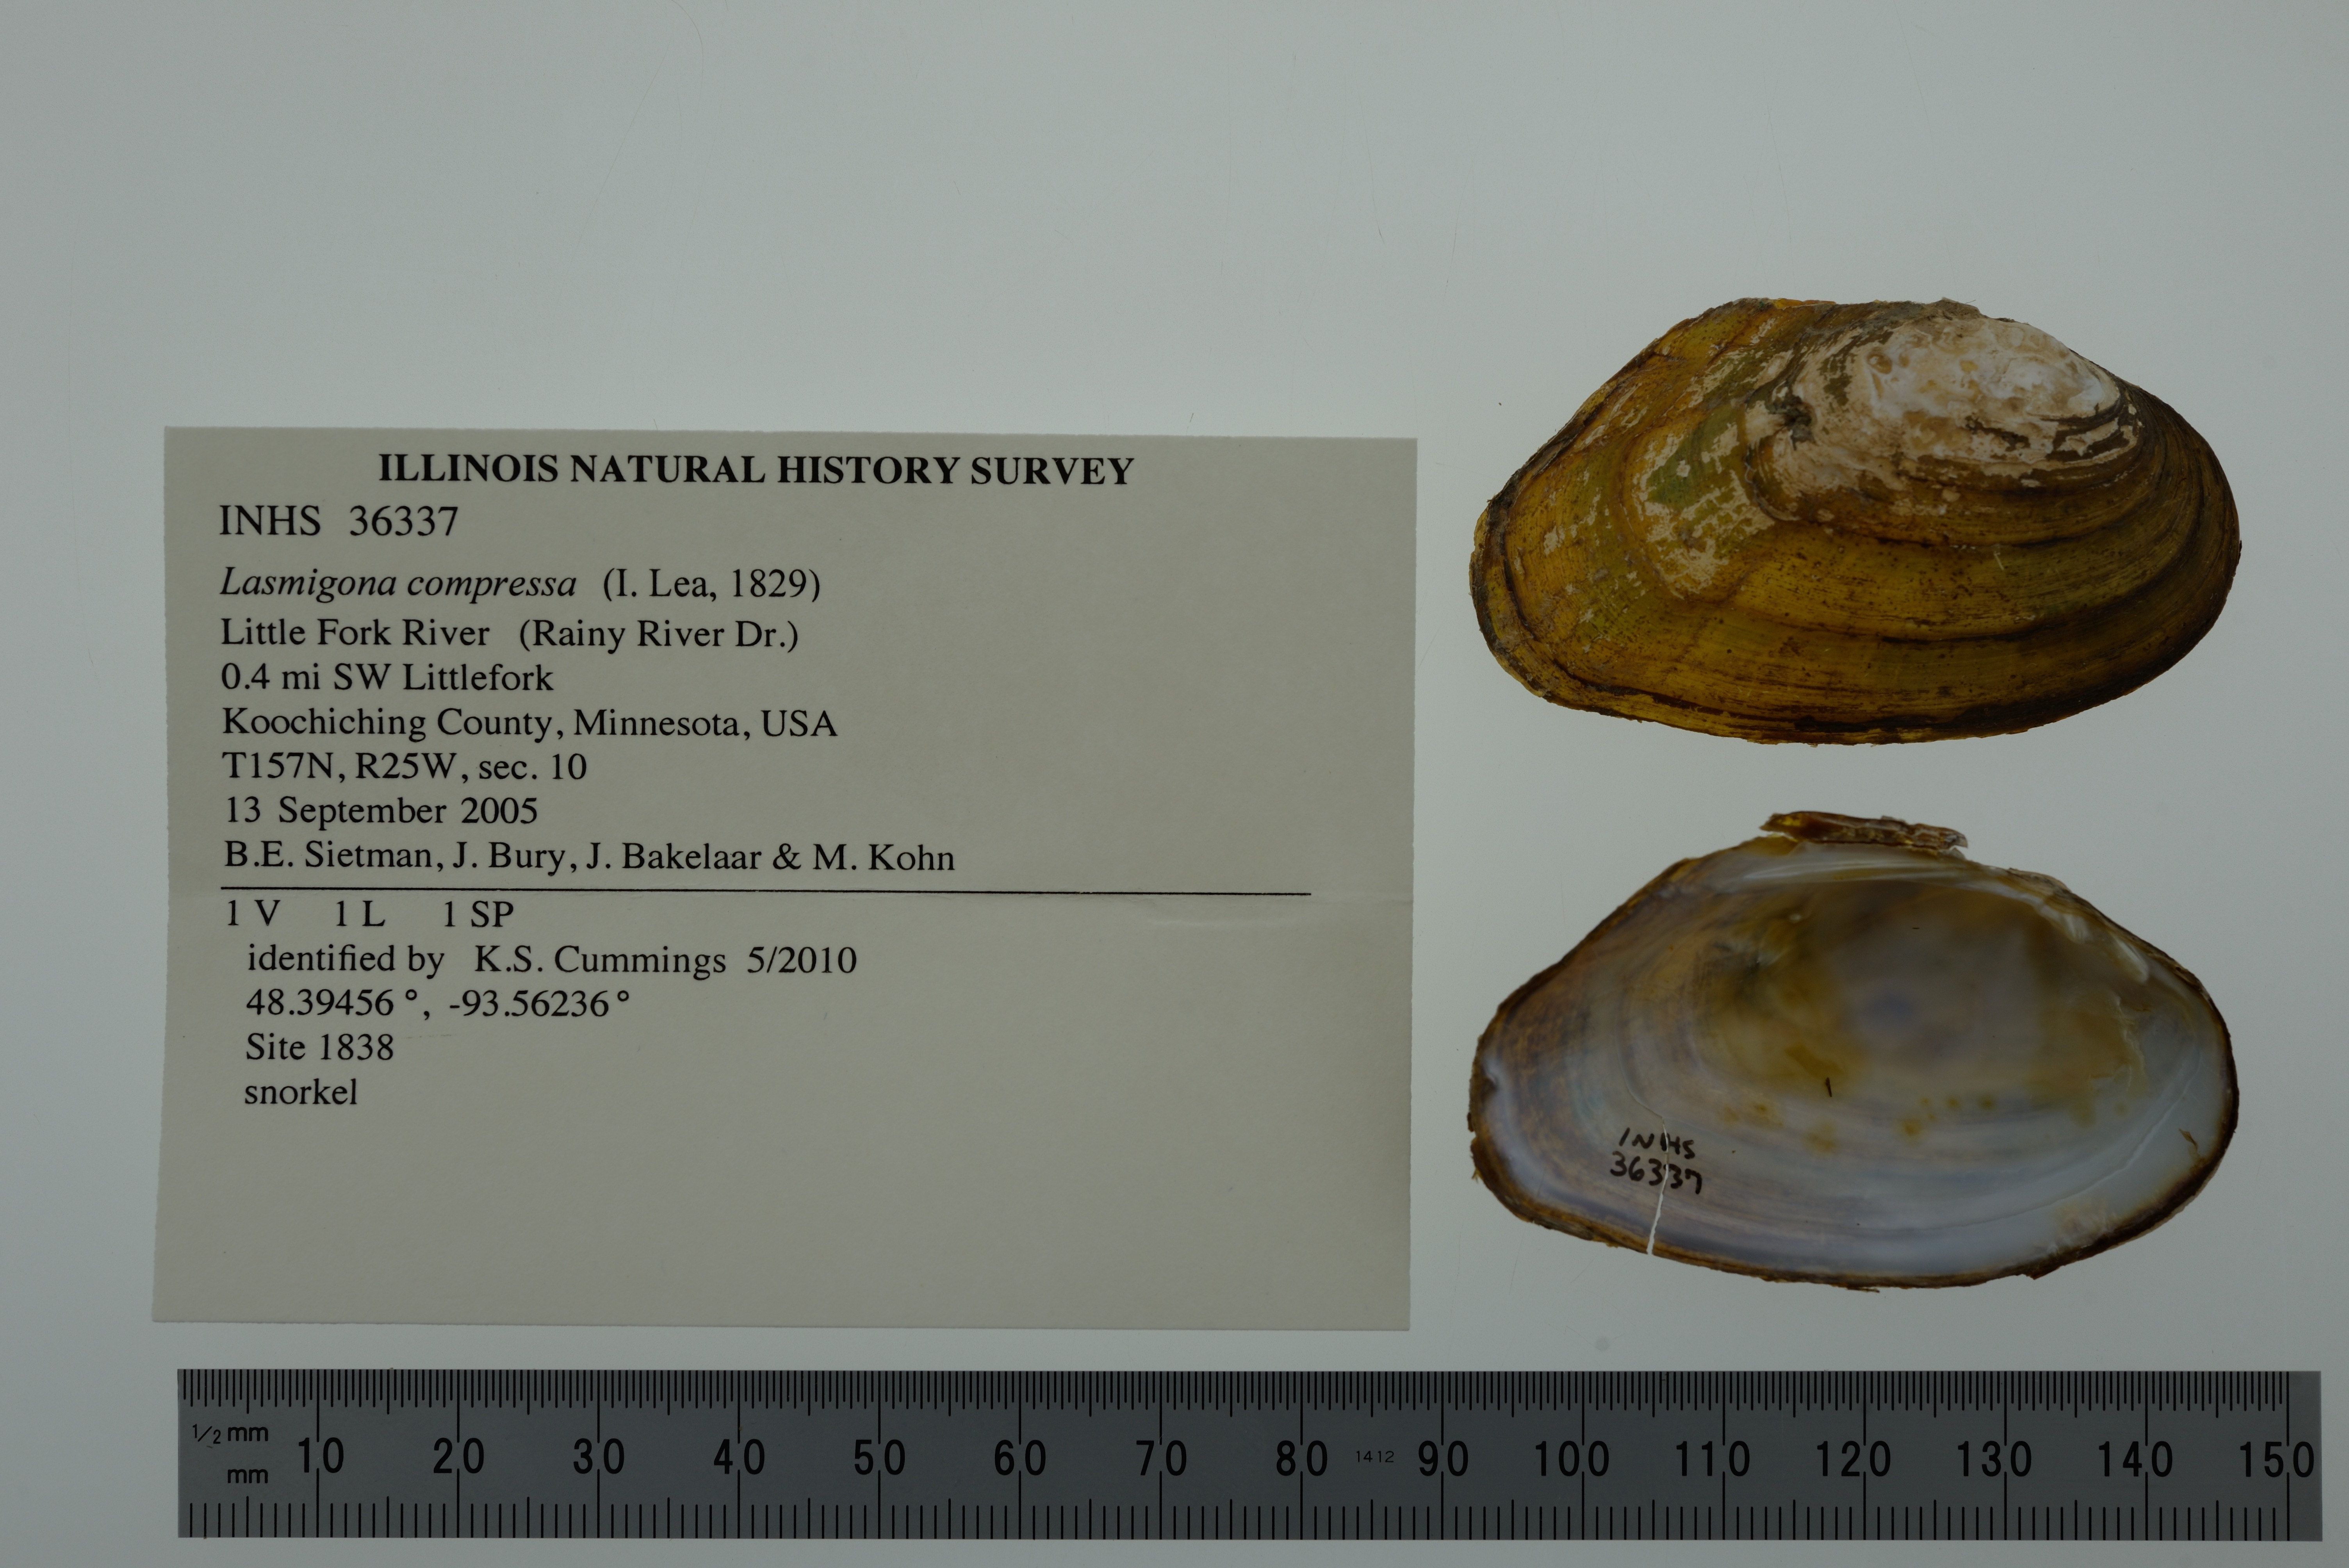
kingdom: Animalia
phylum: Mollusca
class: Bivalvia
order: Unionida
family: Unionidae
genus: Lasmigona
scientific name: Lasmigona compressa
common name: Creek heelsplitter
